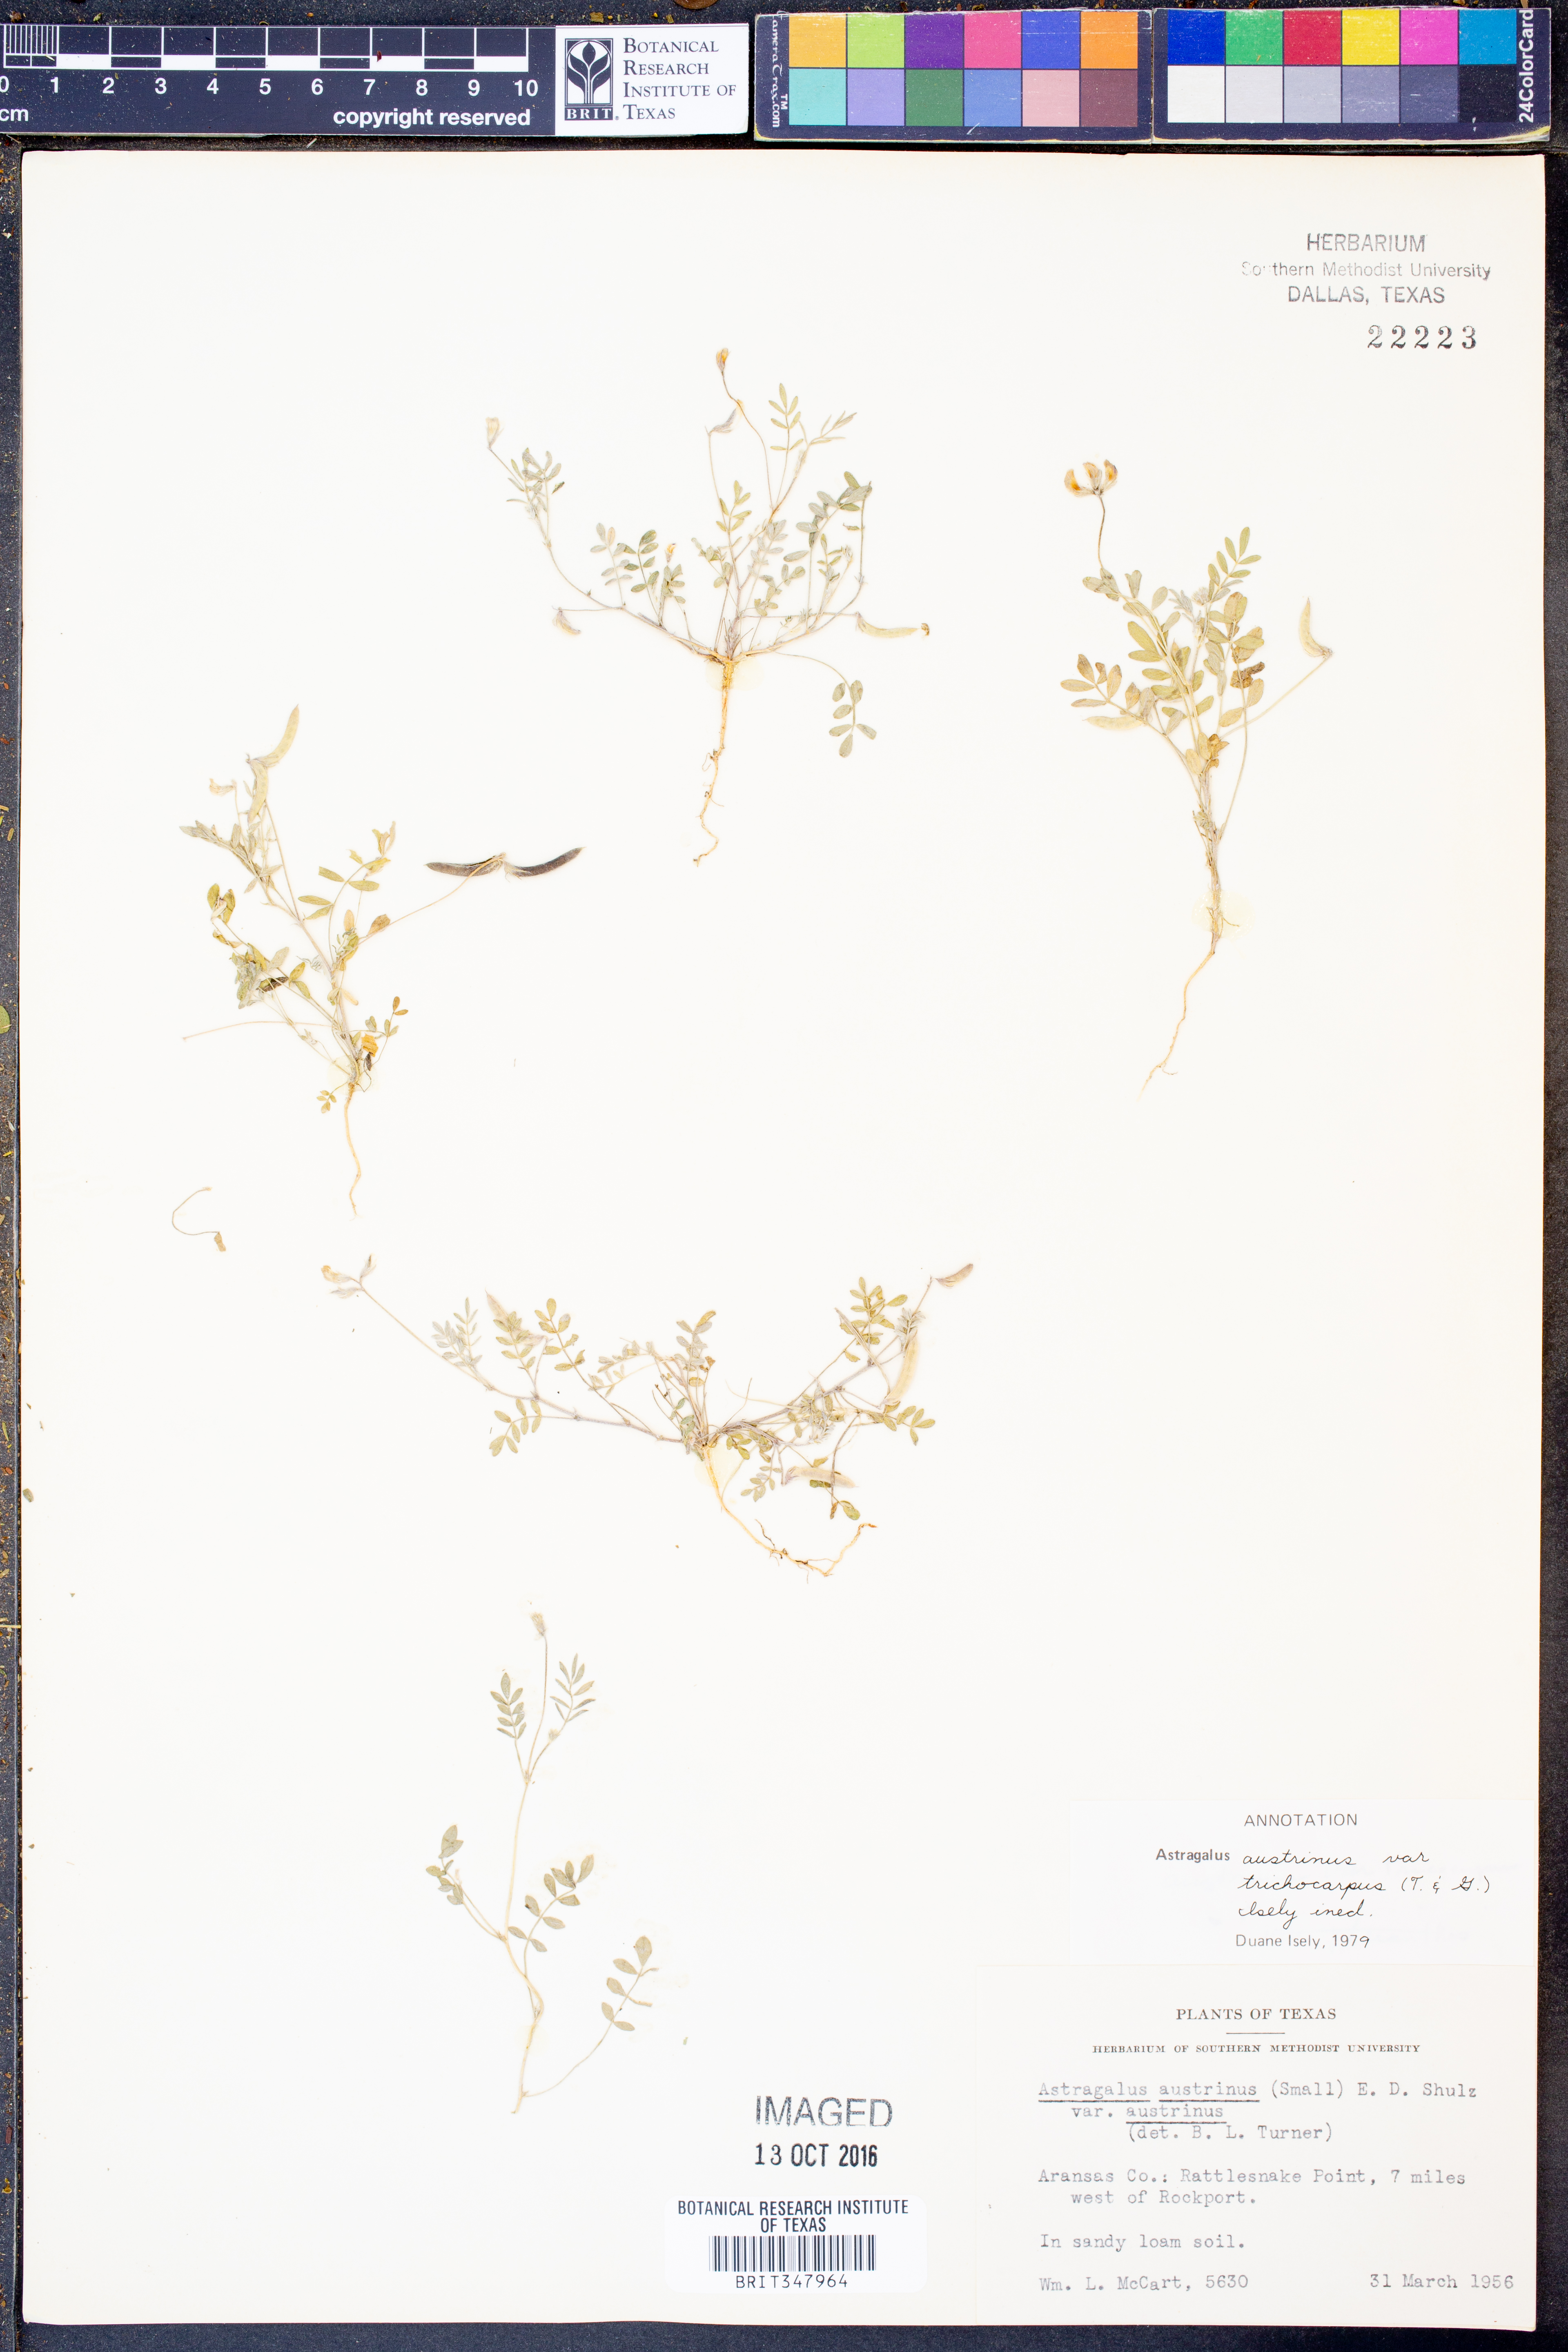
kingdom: Plantae
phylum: Tracheophyta
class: Magnoliopsida
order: Fabales
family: Fabaceae
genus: Astragalus
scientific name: Astragalus nuttallianus
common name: Smallflowered milkvetch
